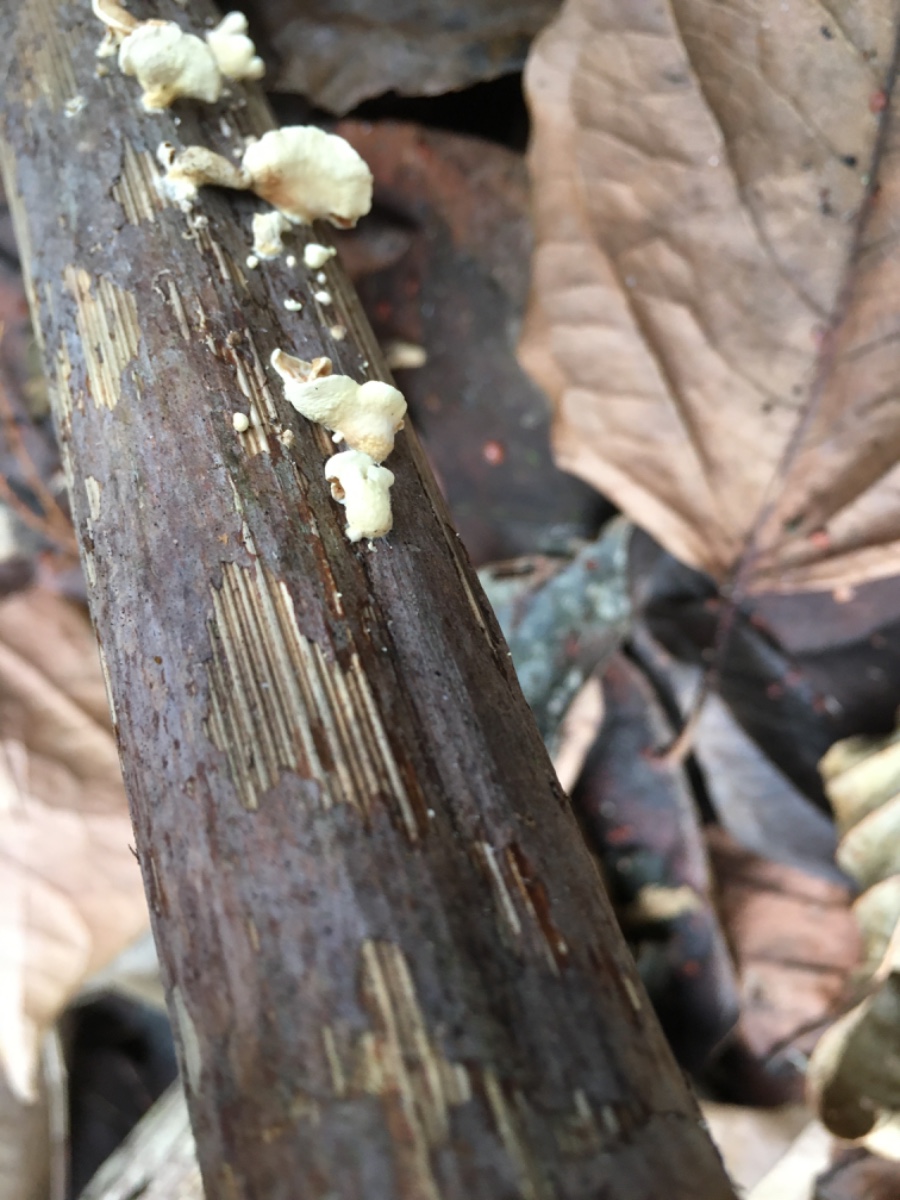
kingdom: Fungi
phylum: Basidiomycota
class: Agaricomycetes
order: Agaricales
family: Crepidotaceae
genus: Crepidotus
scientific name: Crepidotus luteolus
